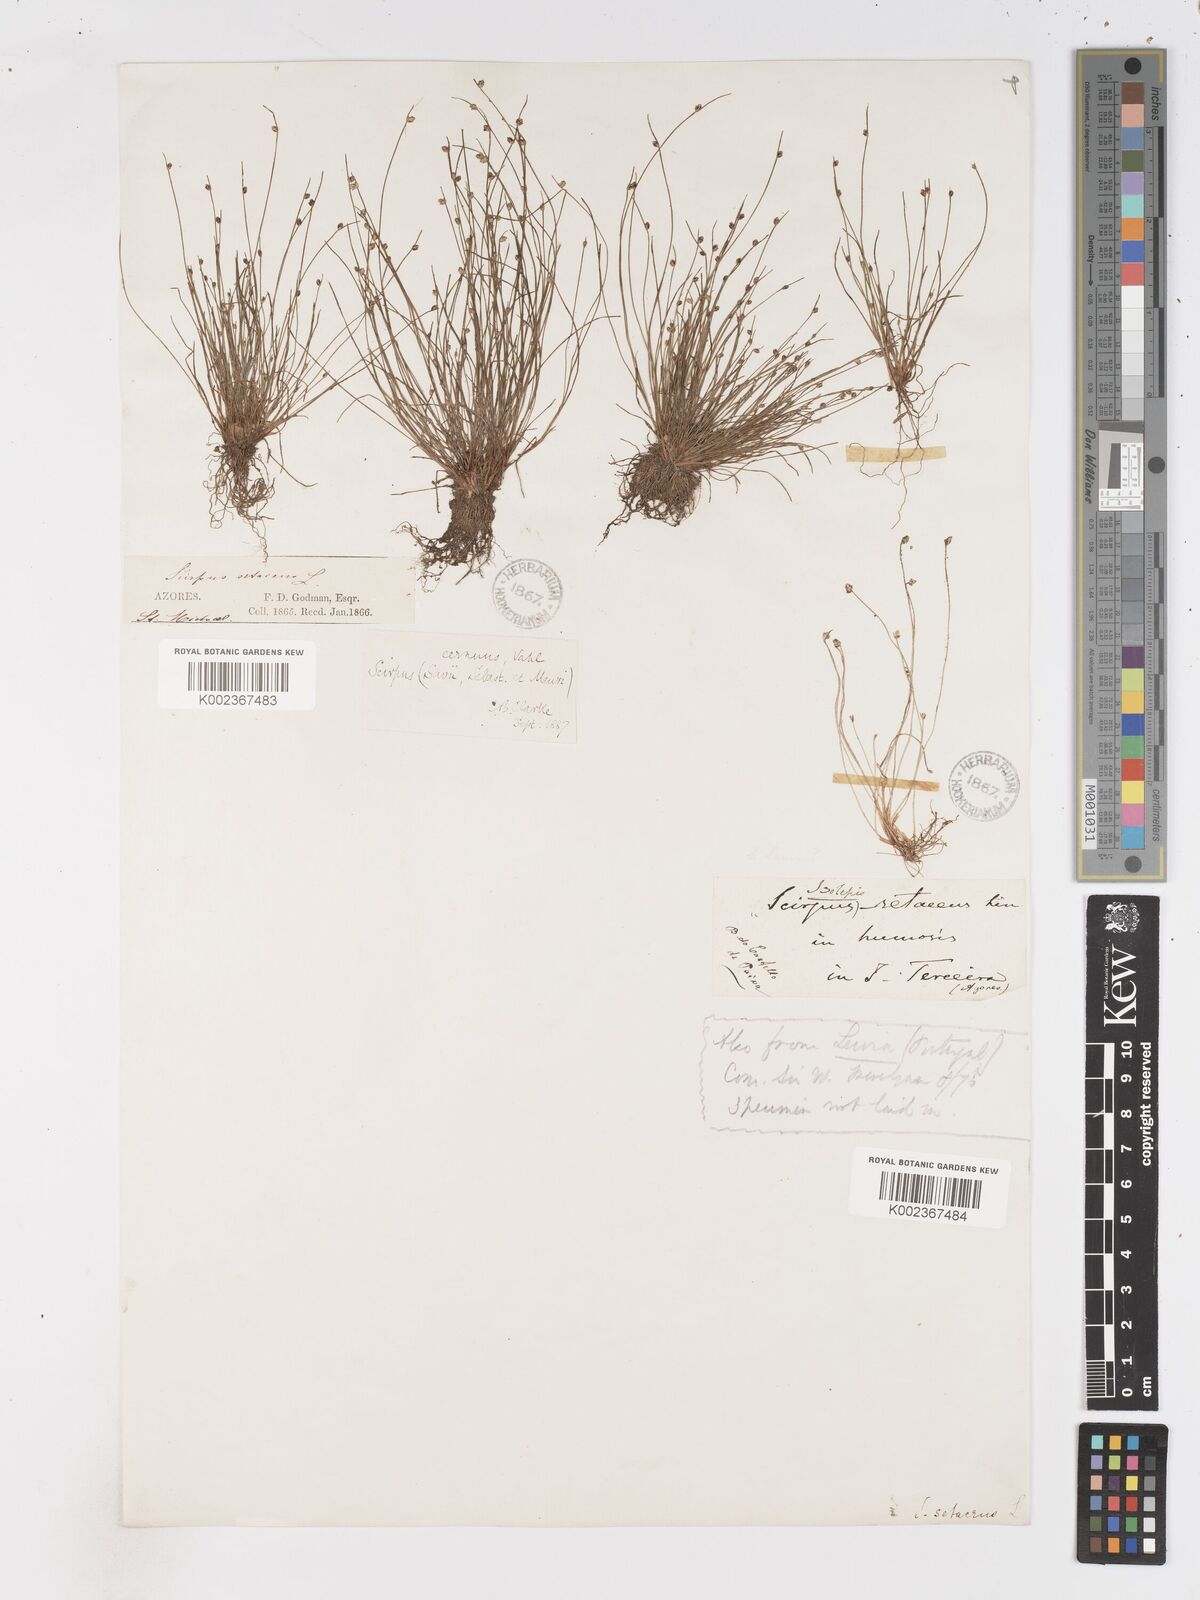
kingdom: Plantae
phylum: Tracheophyta
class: Liliopsida
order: Poales
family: Cyperaceae
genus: Isolepis
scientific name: Isolepis cernua
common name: Slender club-rush
